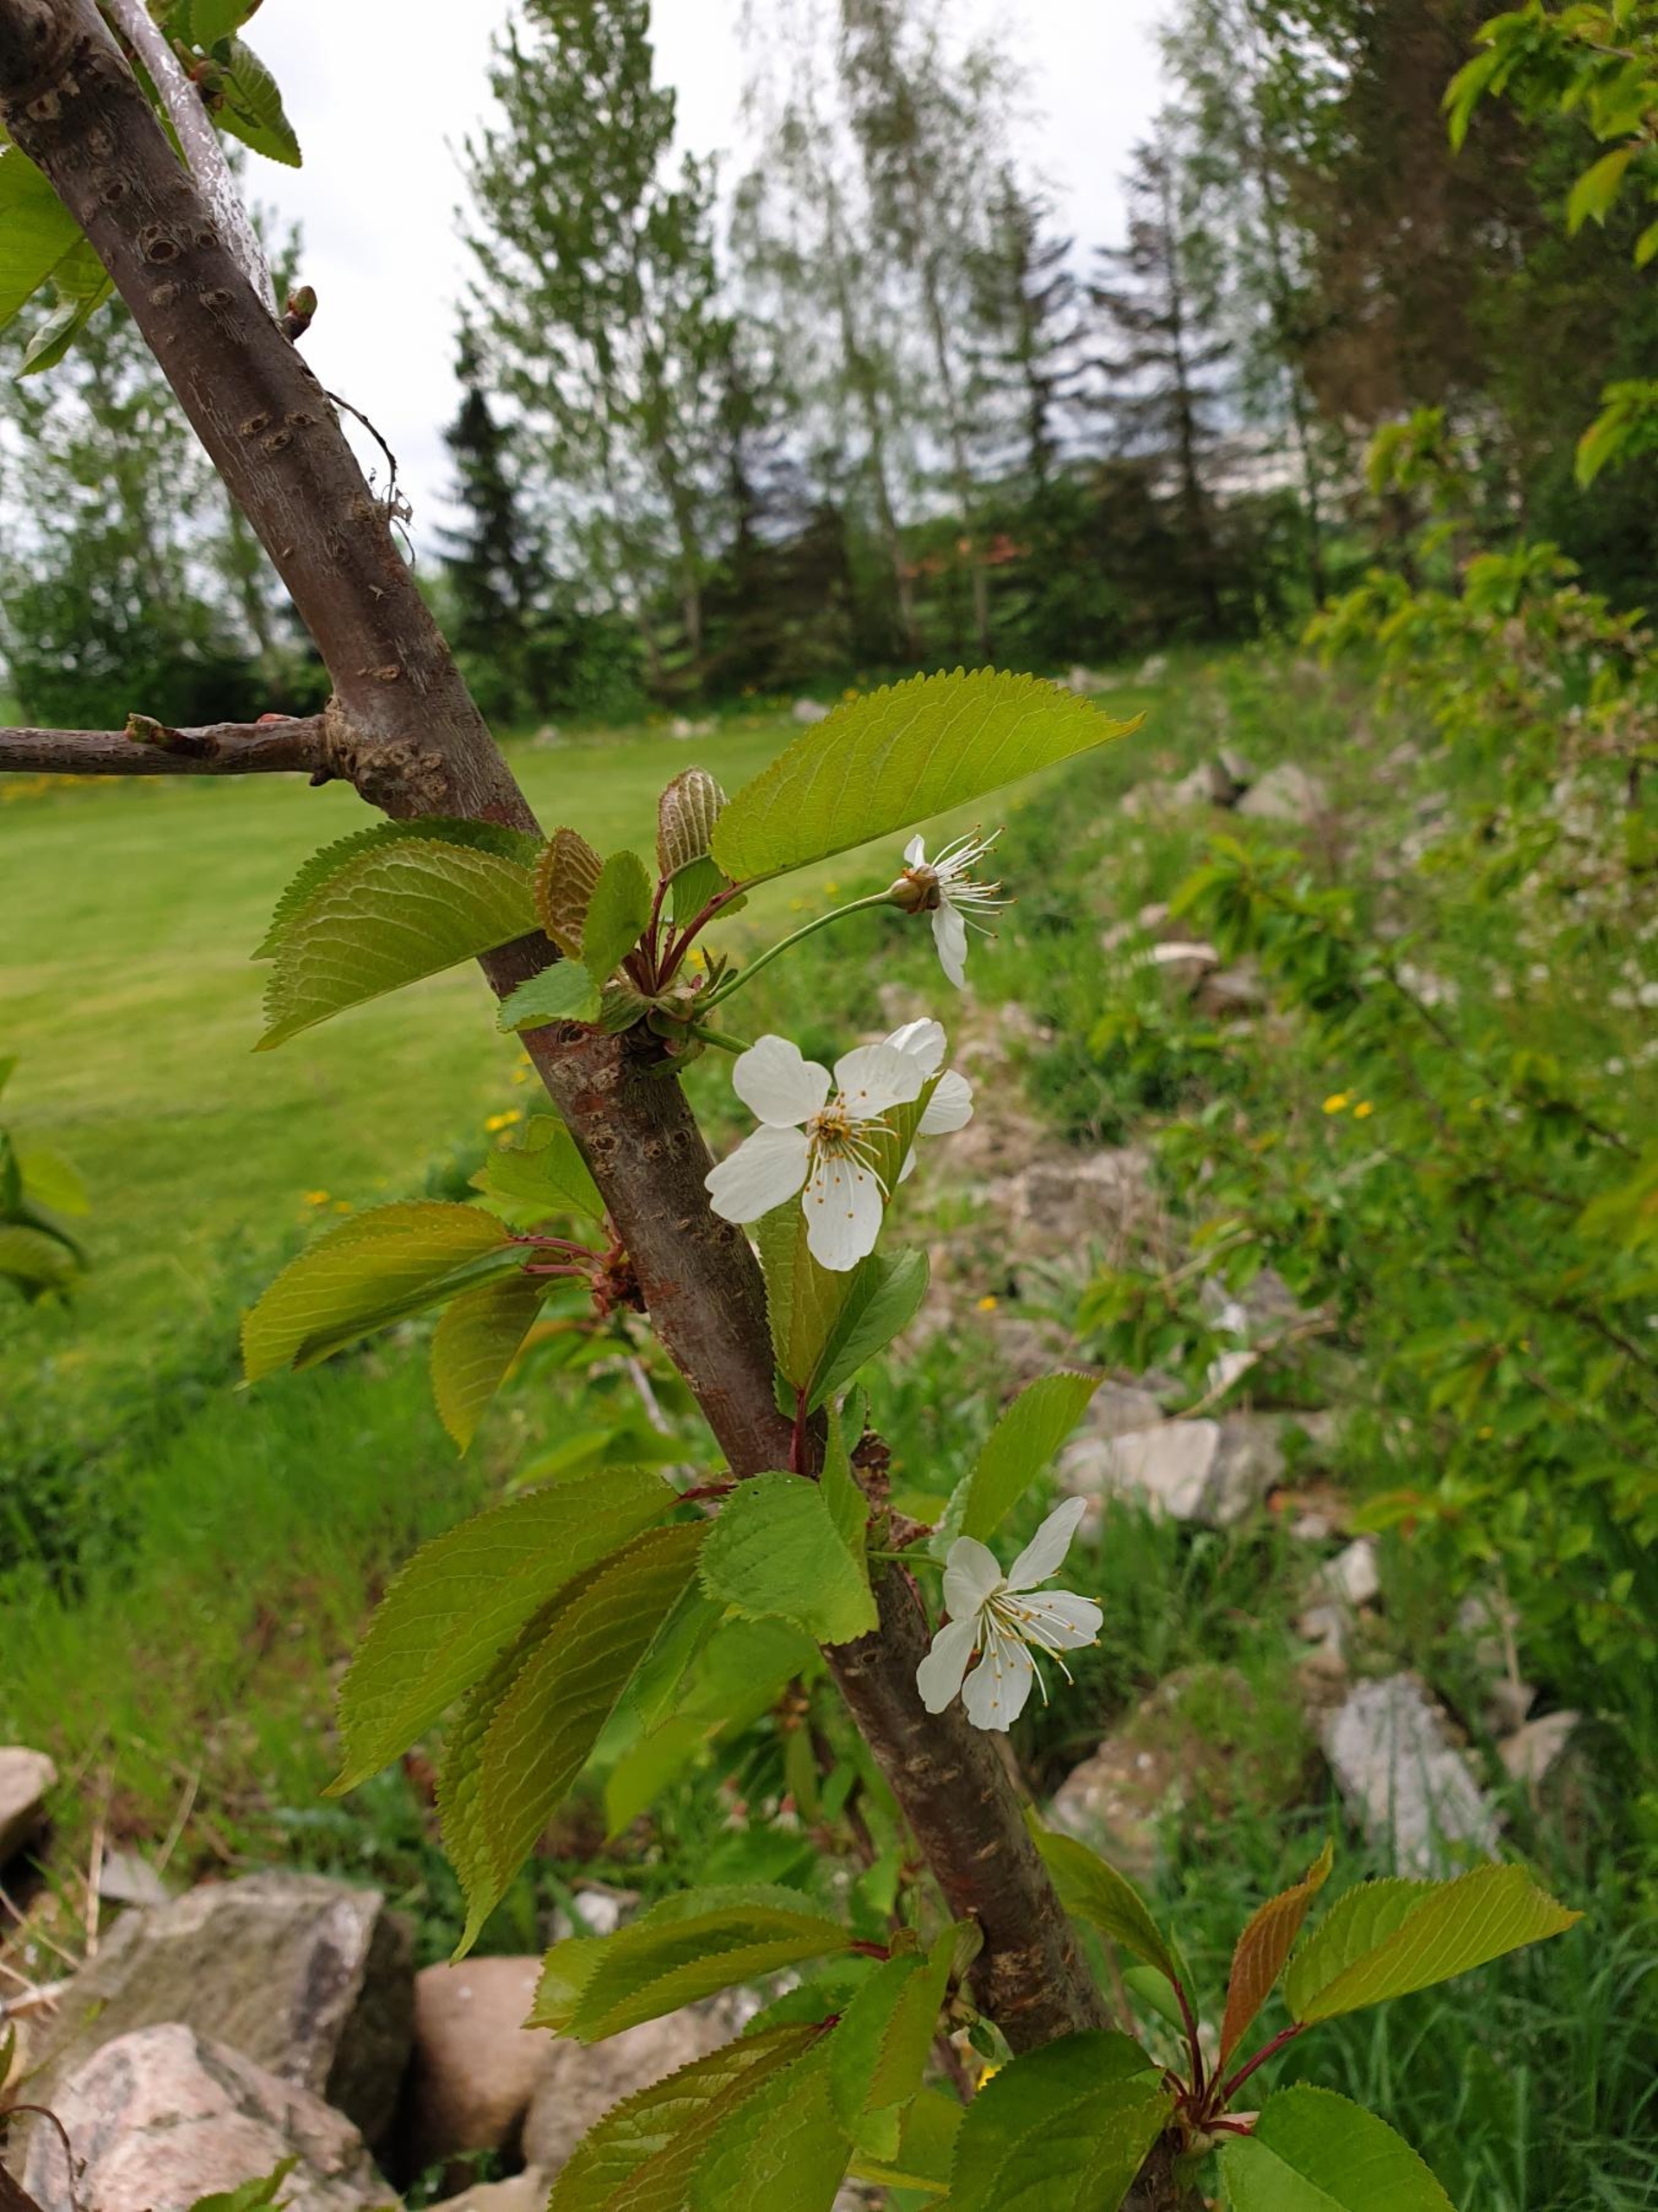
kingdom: Plantae
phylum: Tracheophyta
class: Magnoliopsida
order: Rosales
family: Rosaceae
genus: Prunus
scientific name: Prunus avium
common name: Fugle-kirsebær
